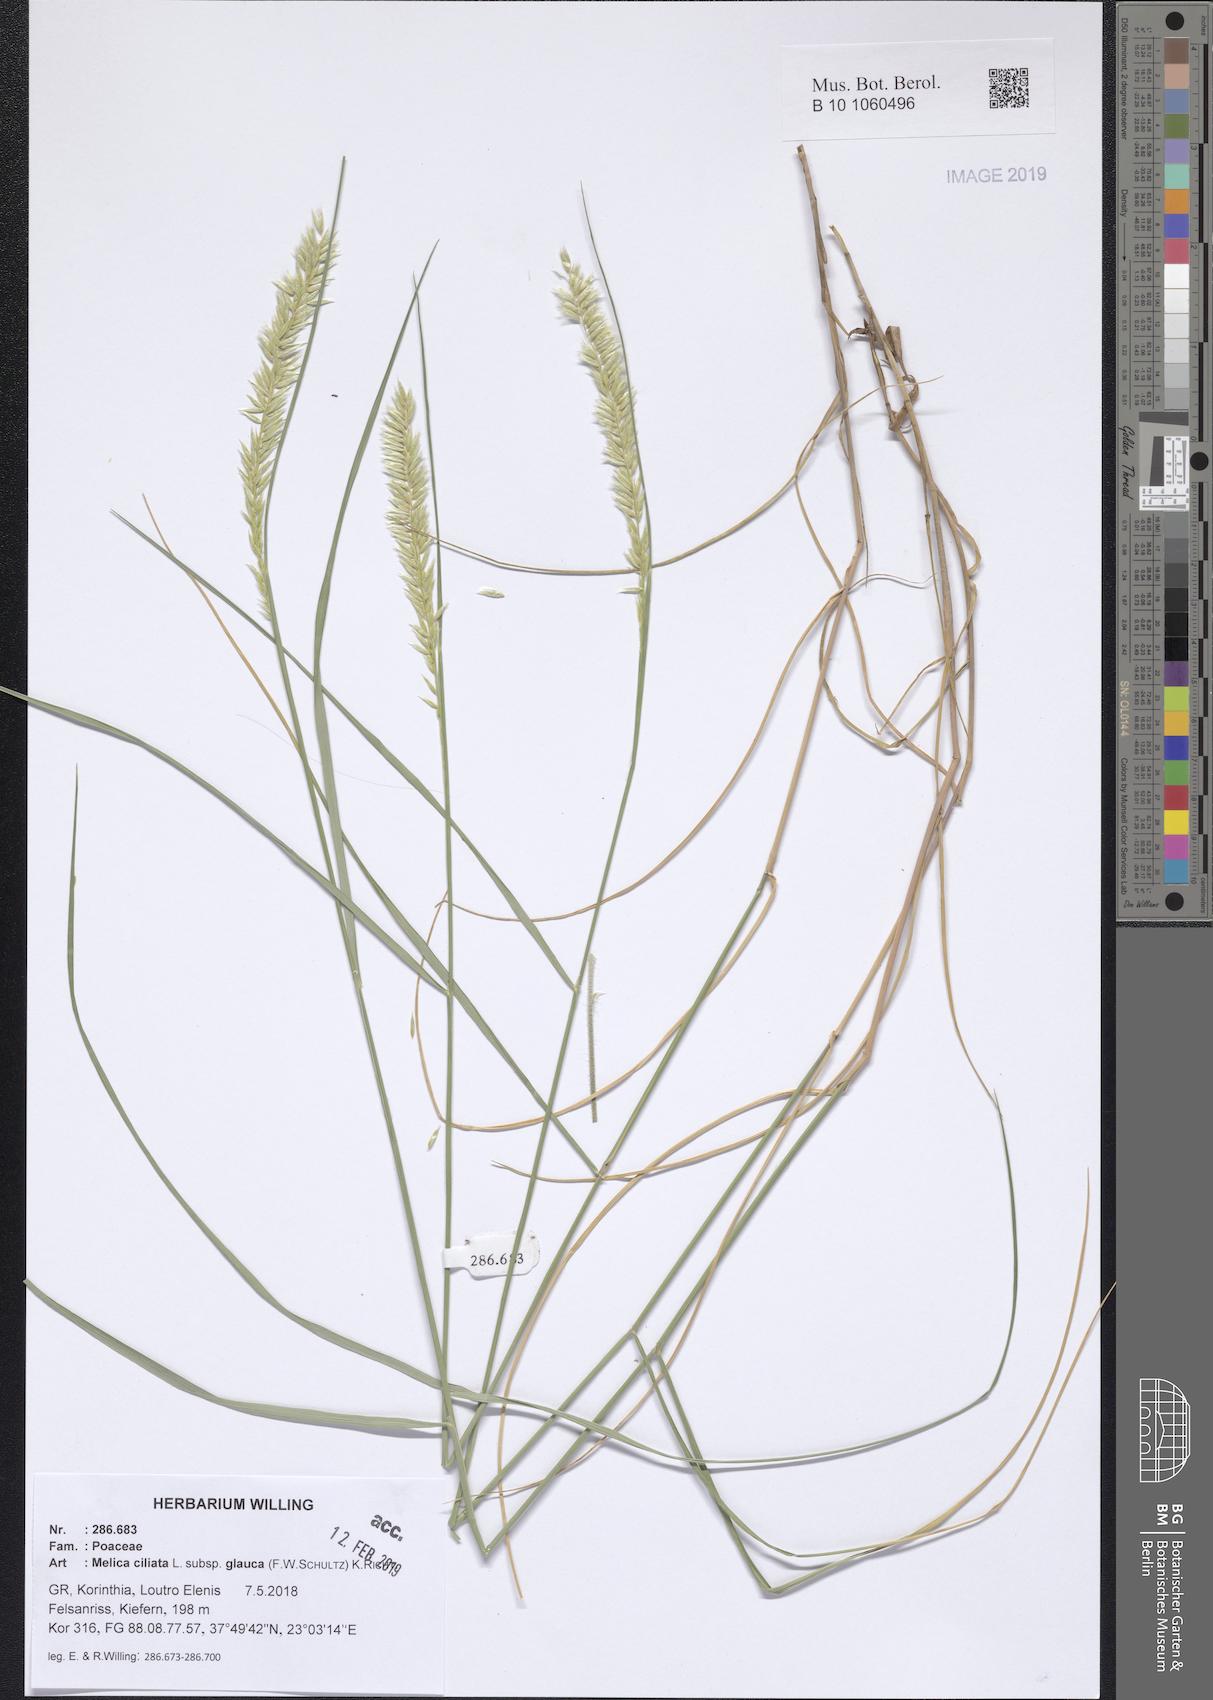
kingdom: Plantae
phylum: Tracheophyta
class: Liliopsida
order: Poales
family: Poaceae
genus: Melica
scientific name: Melica ciliata
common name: Hairy melicgrass
